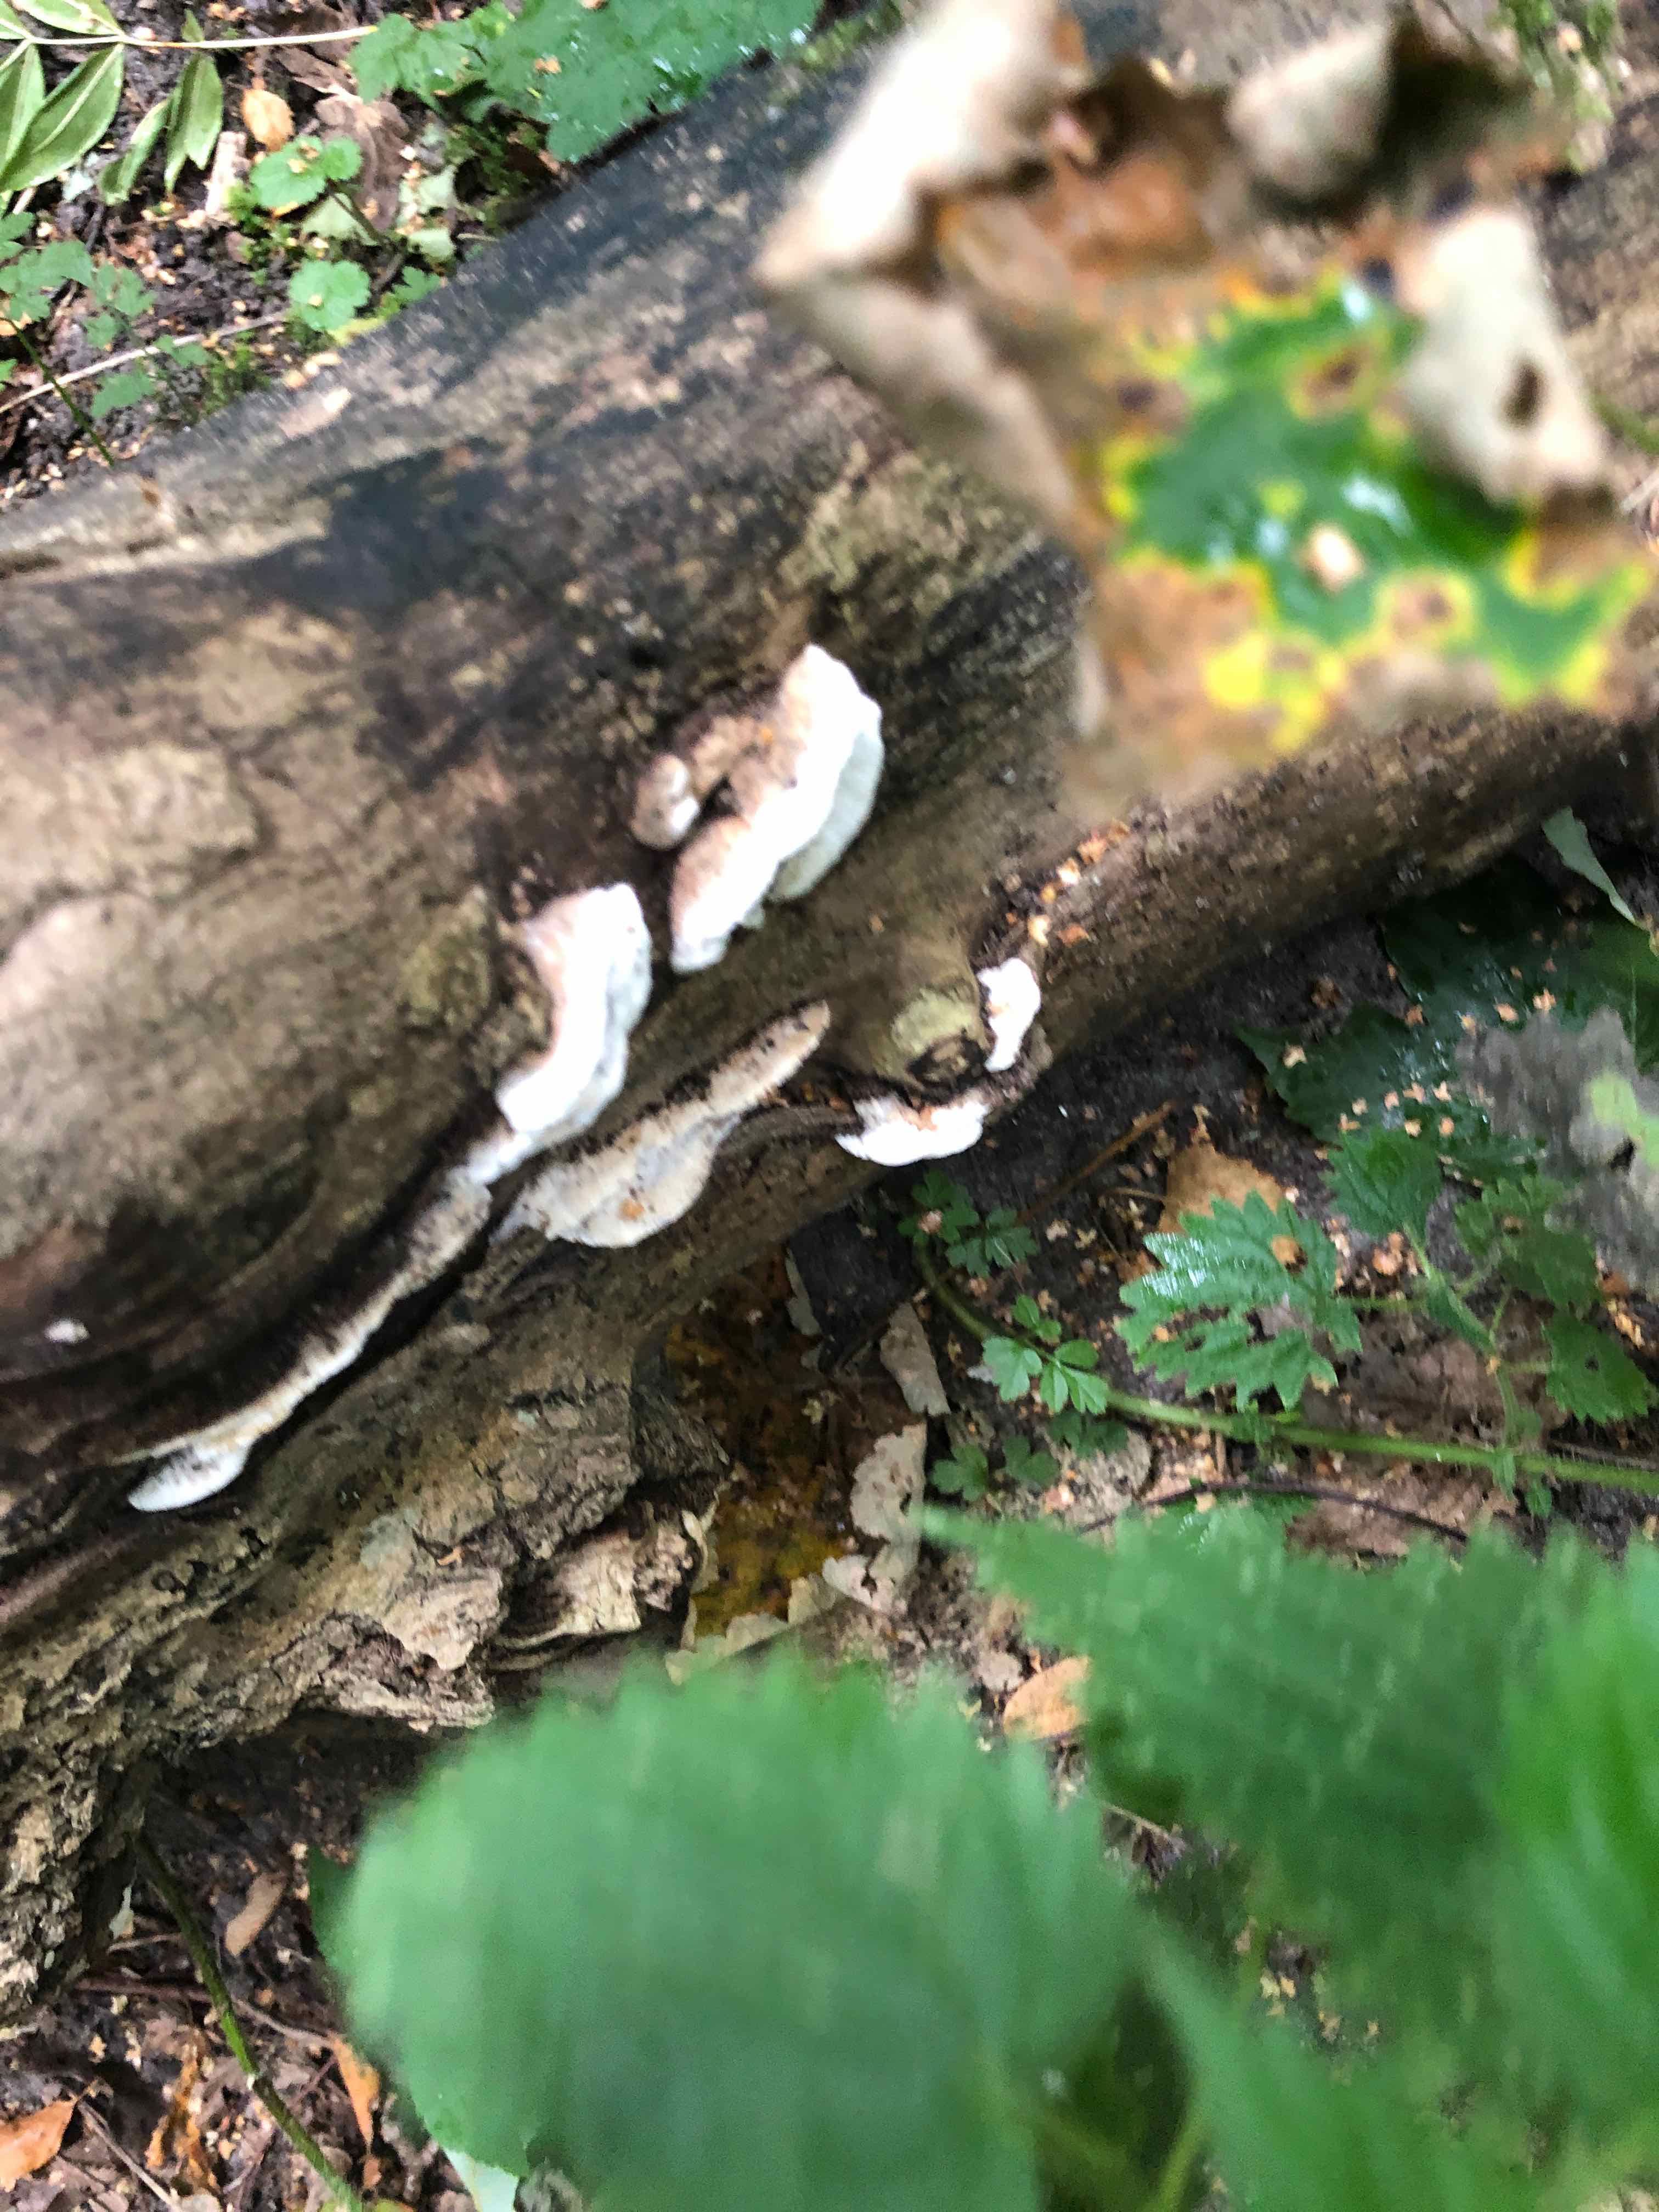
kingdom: Fungi
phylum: Basidiomycota
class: Agaricomycetes
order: Polyporales
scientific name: Polyporales
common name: poresvampordenen
